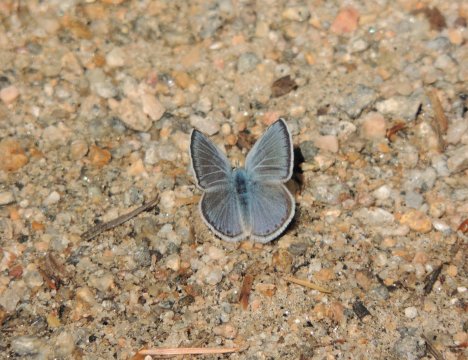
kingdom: Animalia
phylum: Arthropoda
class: Insecta
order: Lepidoptera
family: Lycaenidae
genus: Icaricia
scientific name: Icaricia icarioides
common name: Boisduval's Blue
